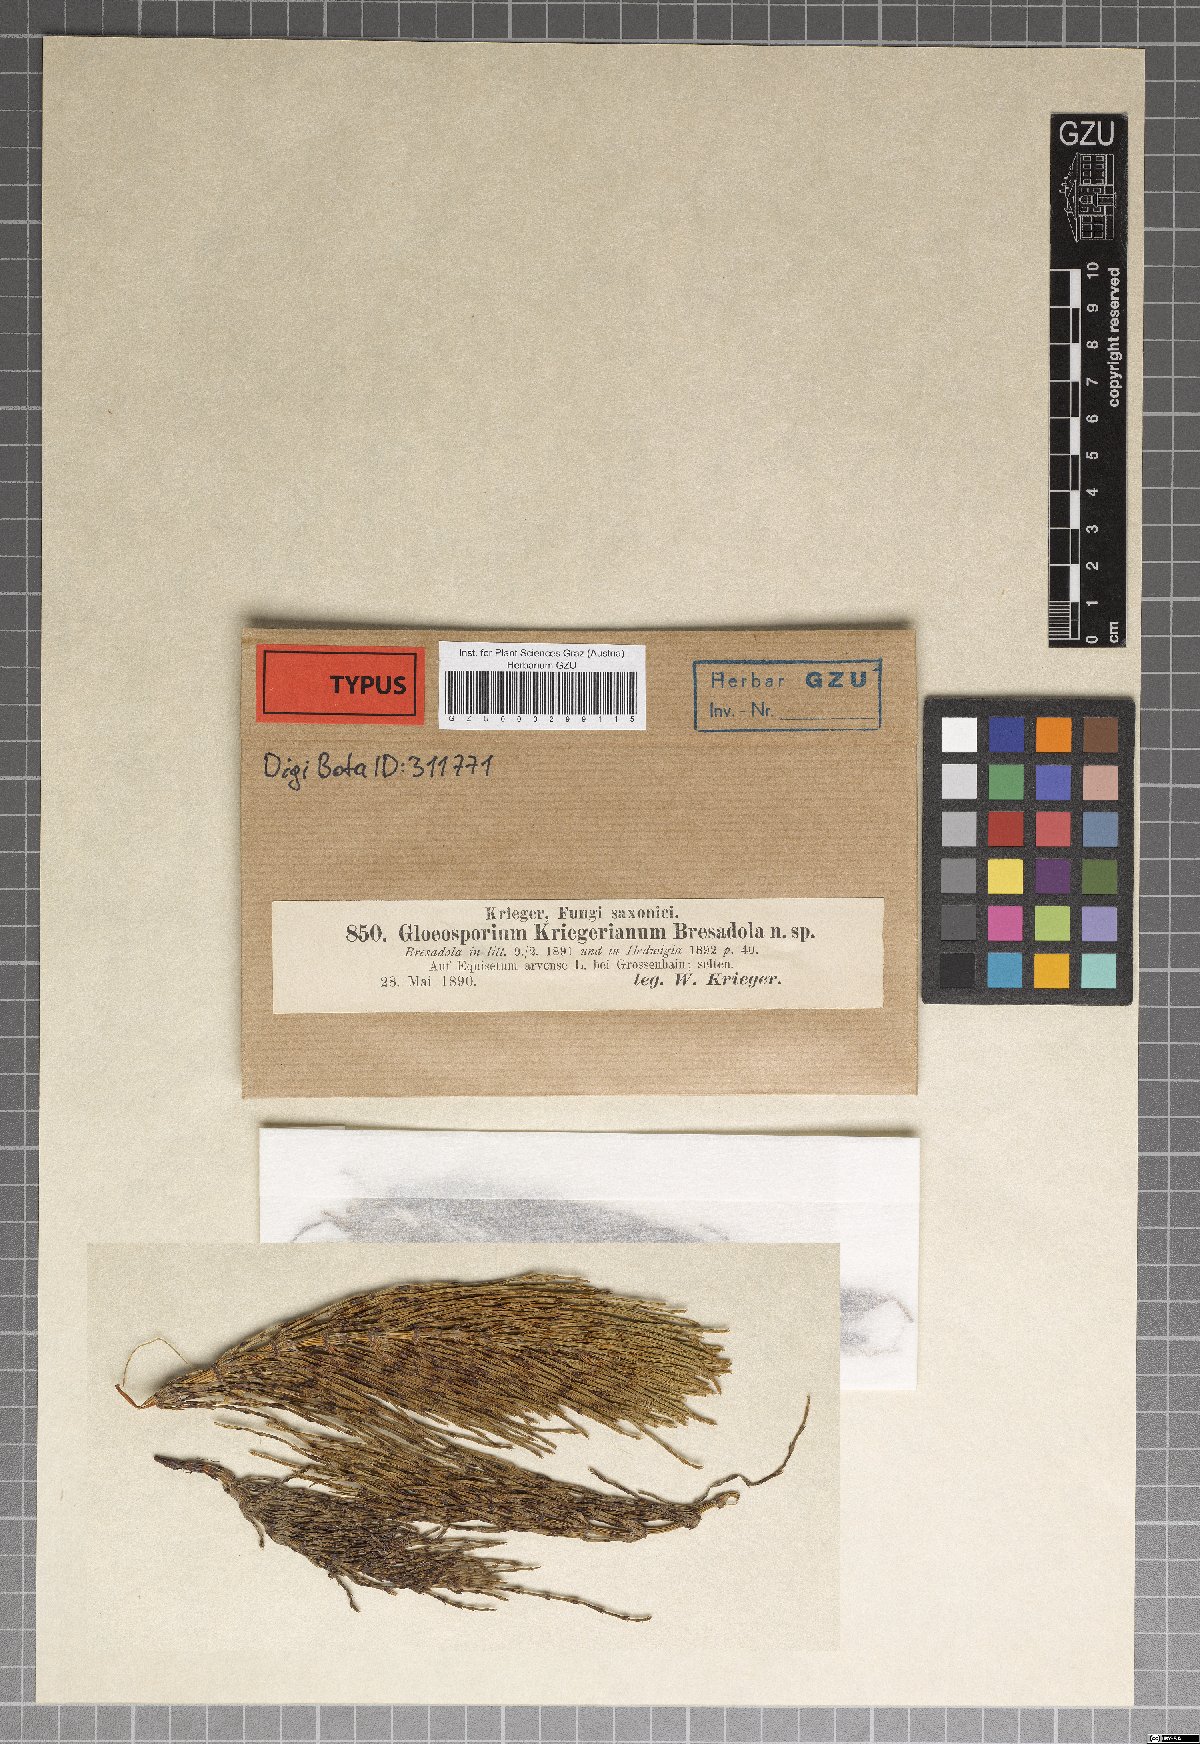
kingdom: Fungi
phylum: Ascomycota
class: Sordariomycetes
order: Diaporthales
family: Gnomoniaceae
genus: Discula
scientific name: Discula kriegeriana
